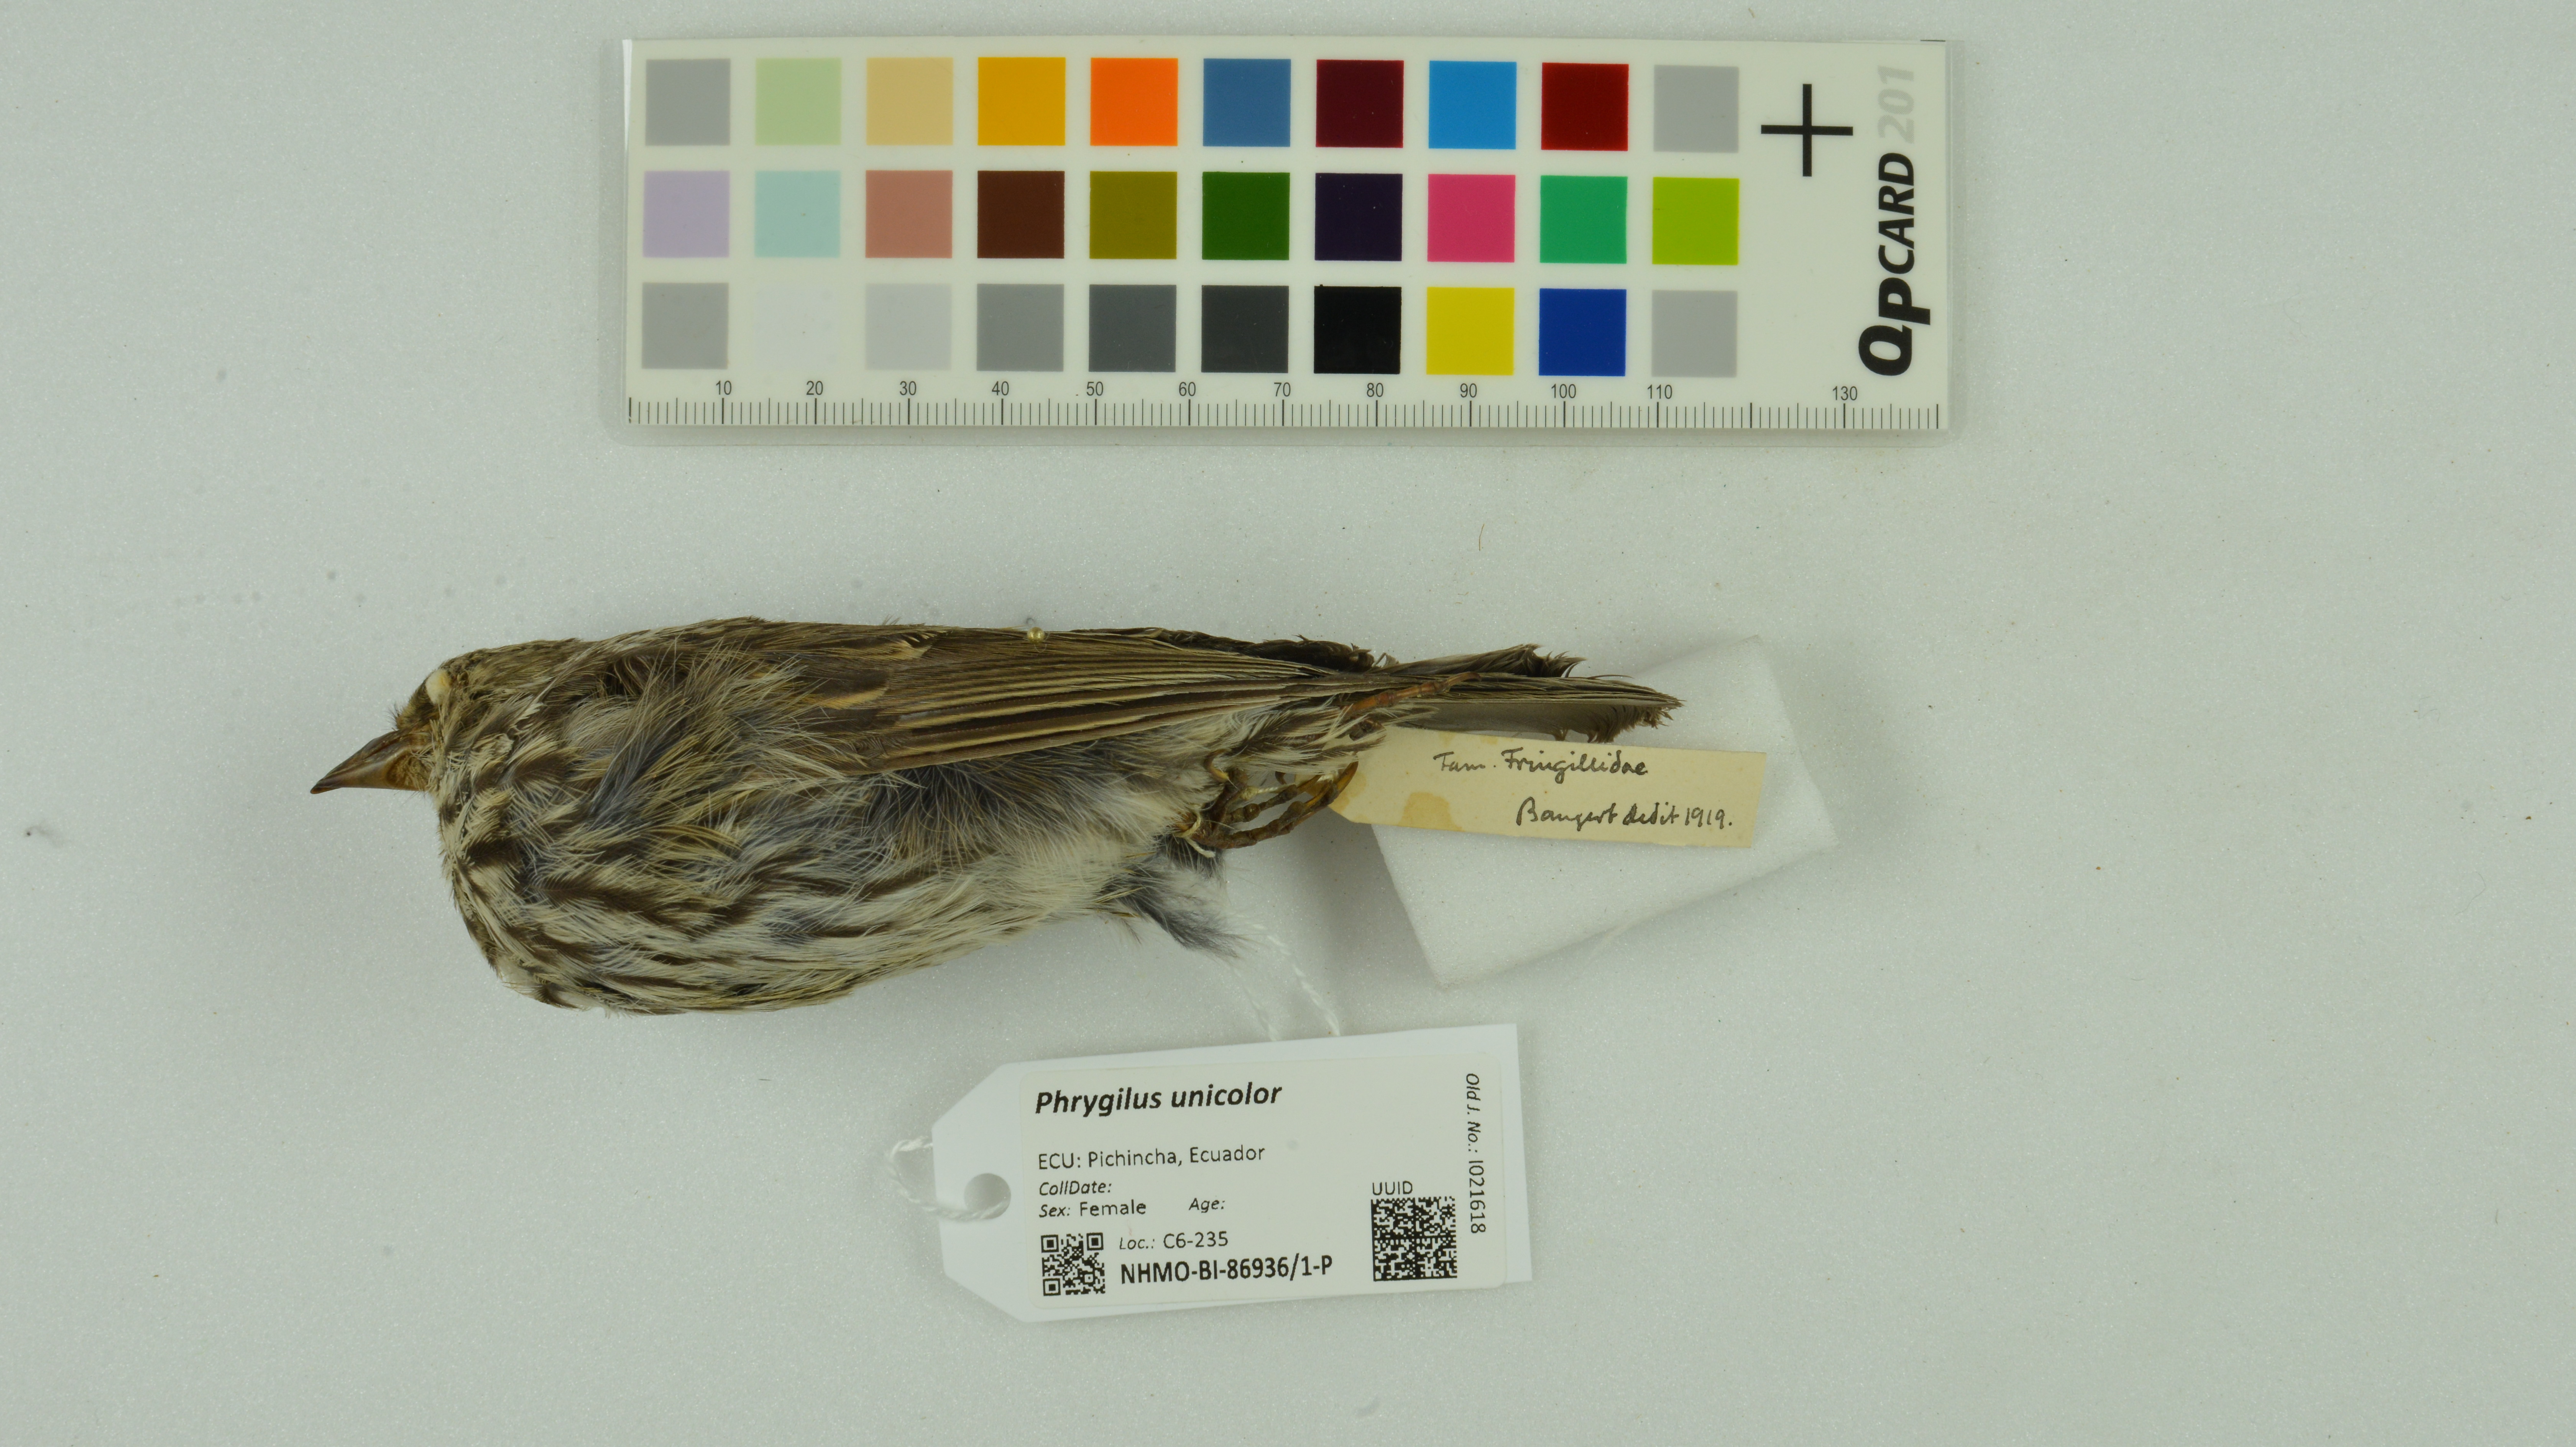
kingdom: Animalia
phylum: Chordata
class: Aves
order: Passeriformes
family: Thraupidae
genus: Geospizopsis
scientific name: Geospizopsis unicolor
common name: Plumbeous sierra-finch
